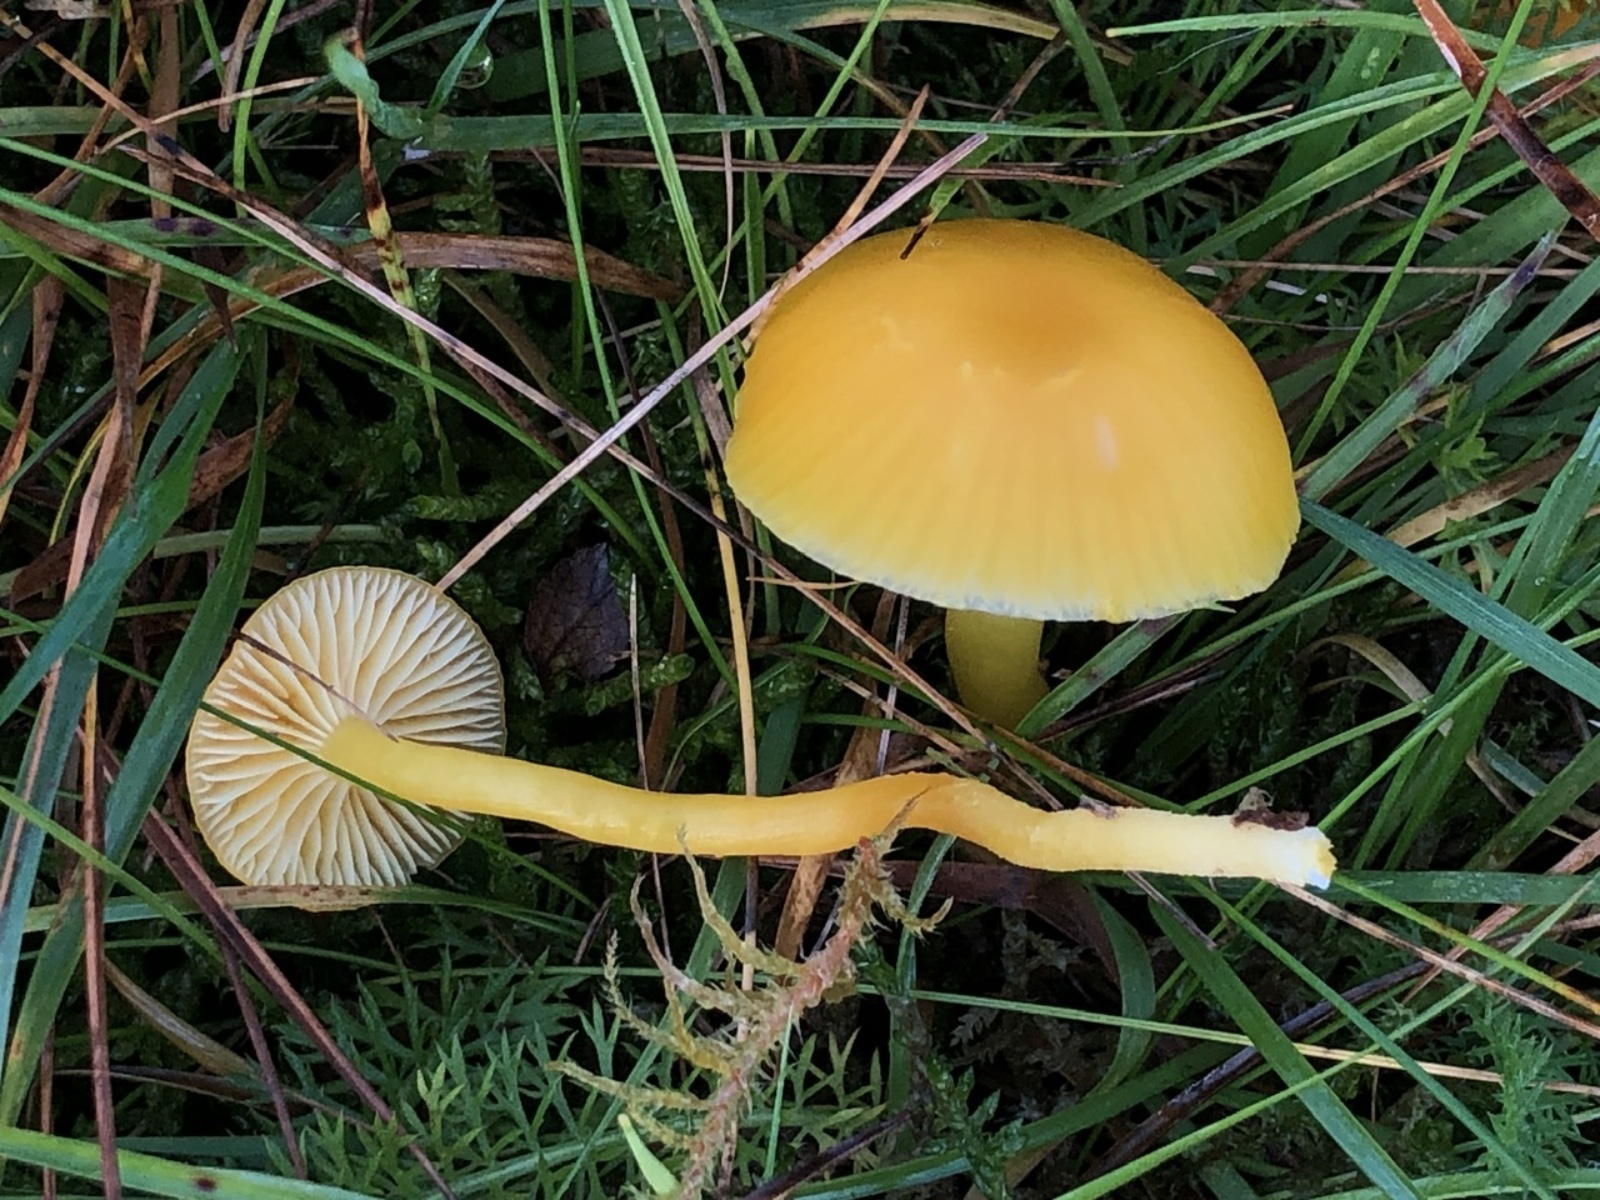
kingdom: Fungi
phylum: Basidiomycota
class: Agaricomycetes
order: Agaricales
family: Hygrophoraceae
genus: Hygrocybe
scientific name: Hygrocybe ceracea
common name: voksgul vokshat
